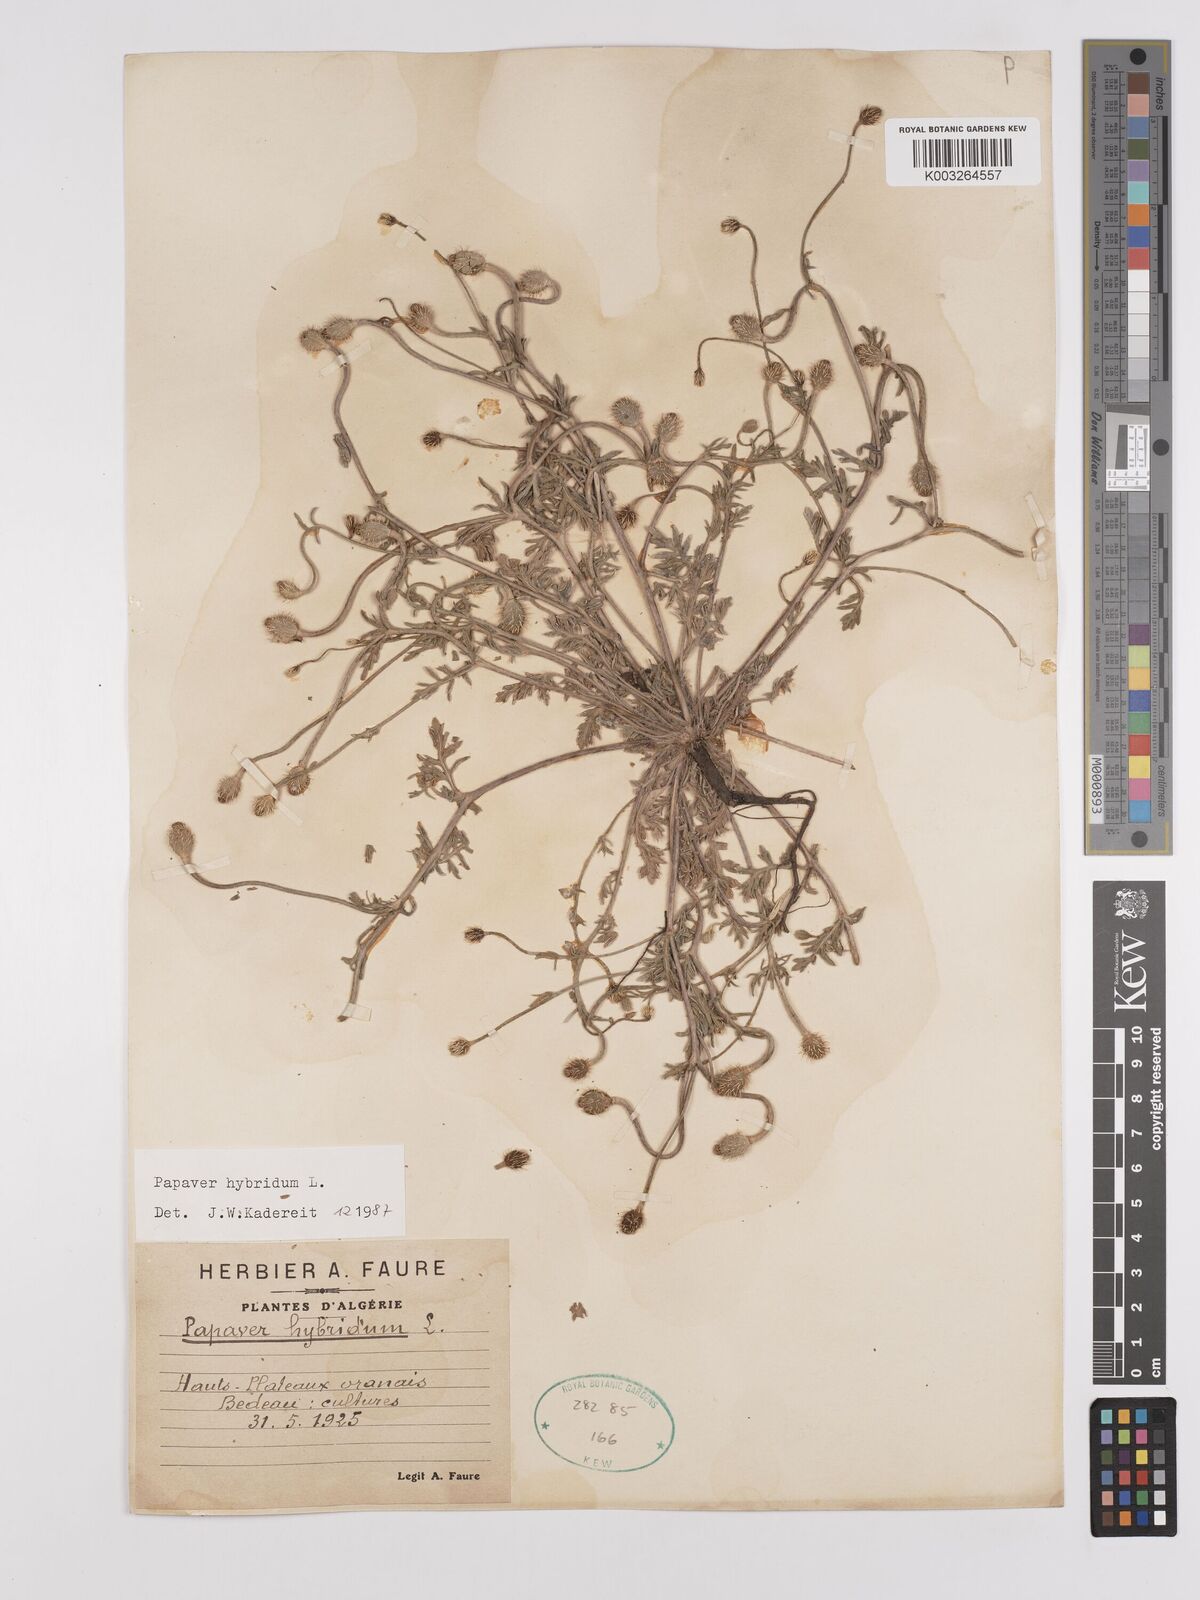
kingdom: Plantae
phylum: Tracheophyta
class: Magnoliopsida
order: Ranunculales
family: Papaveraceae
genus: Papaver
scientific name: Papaver
